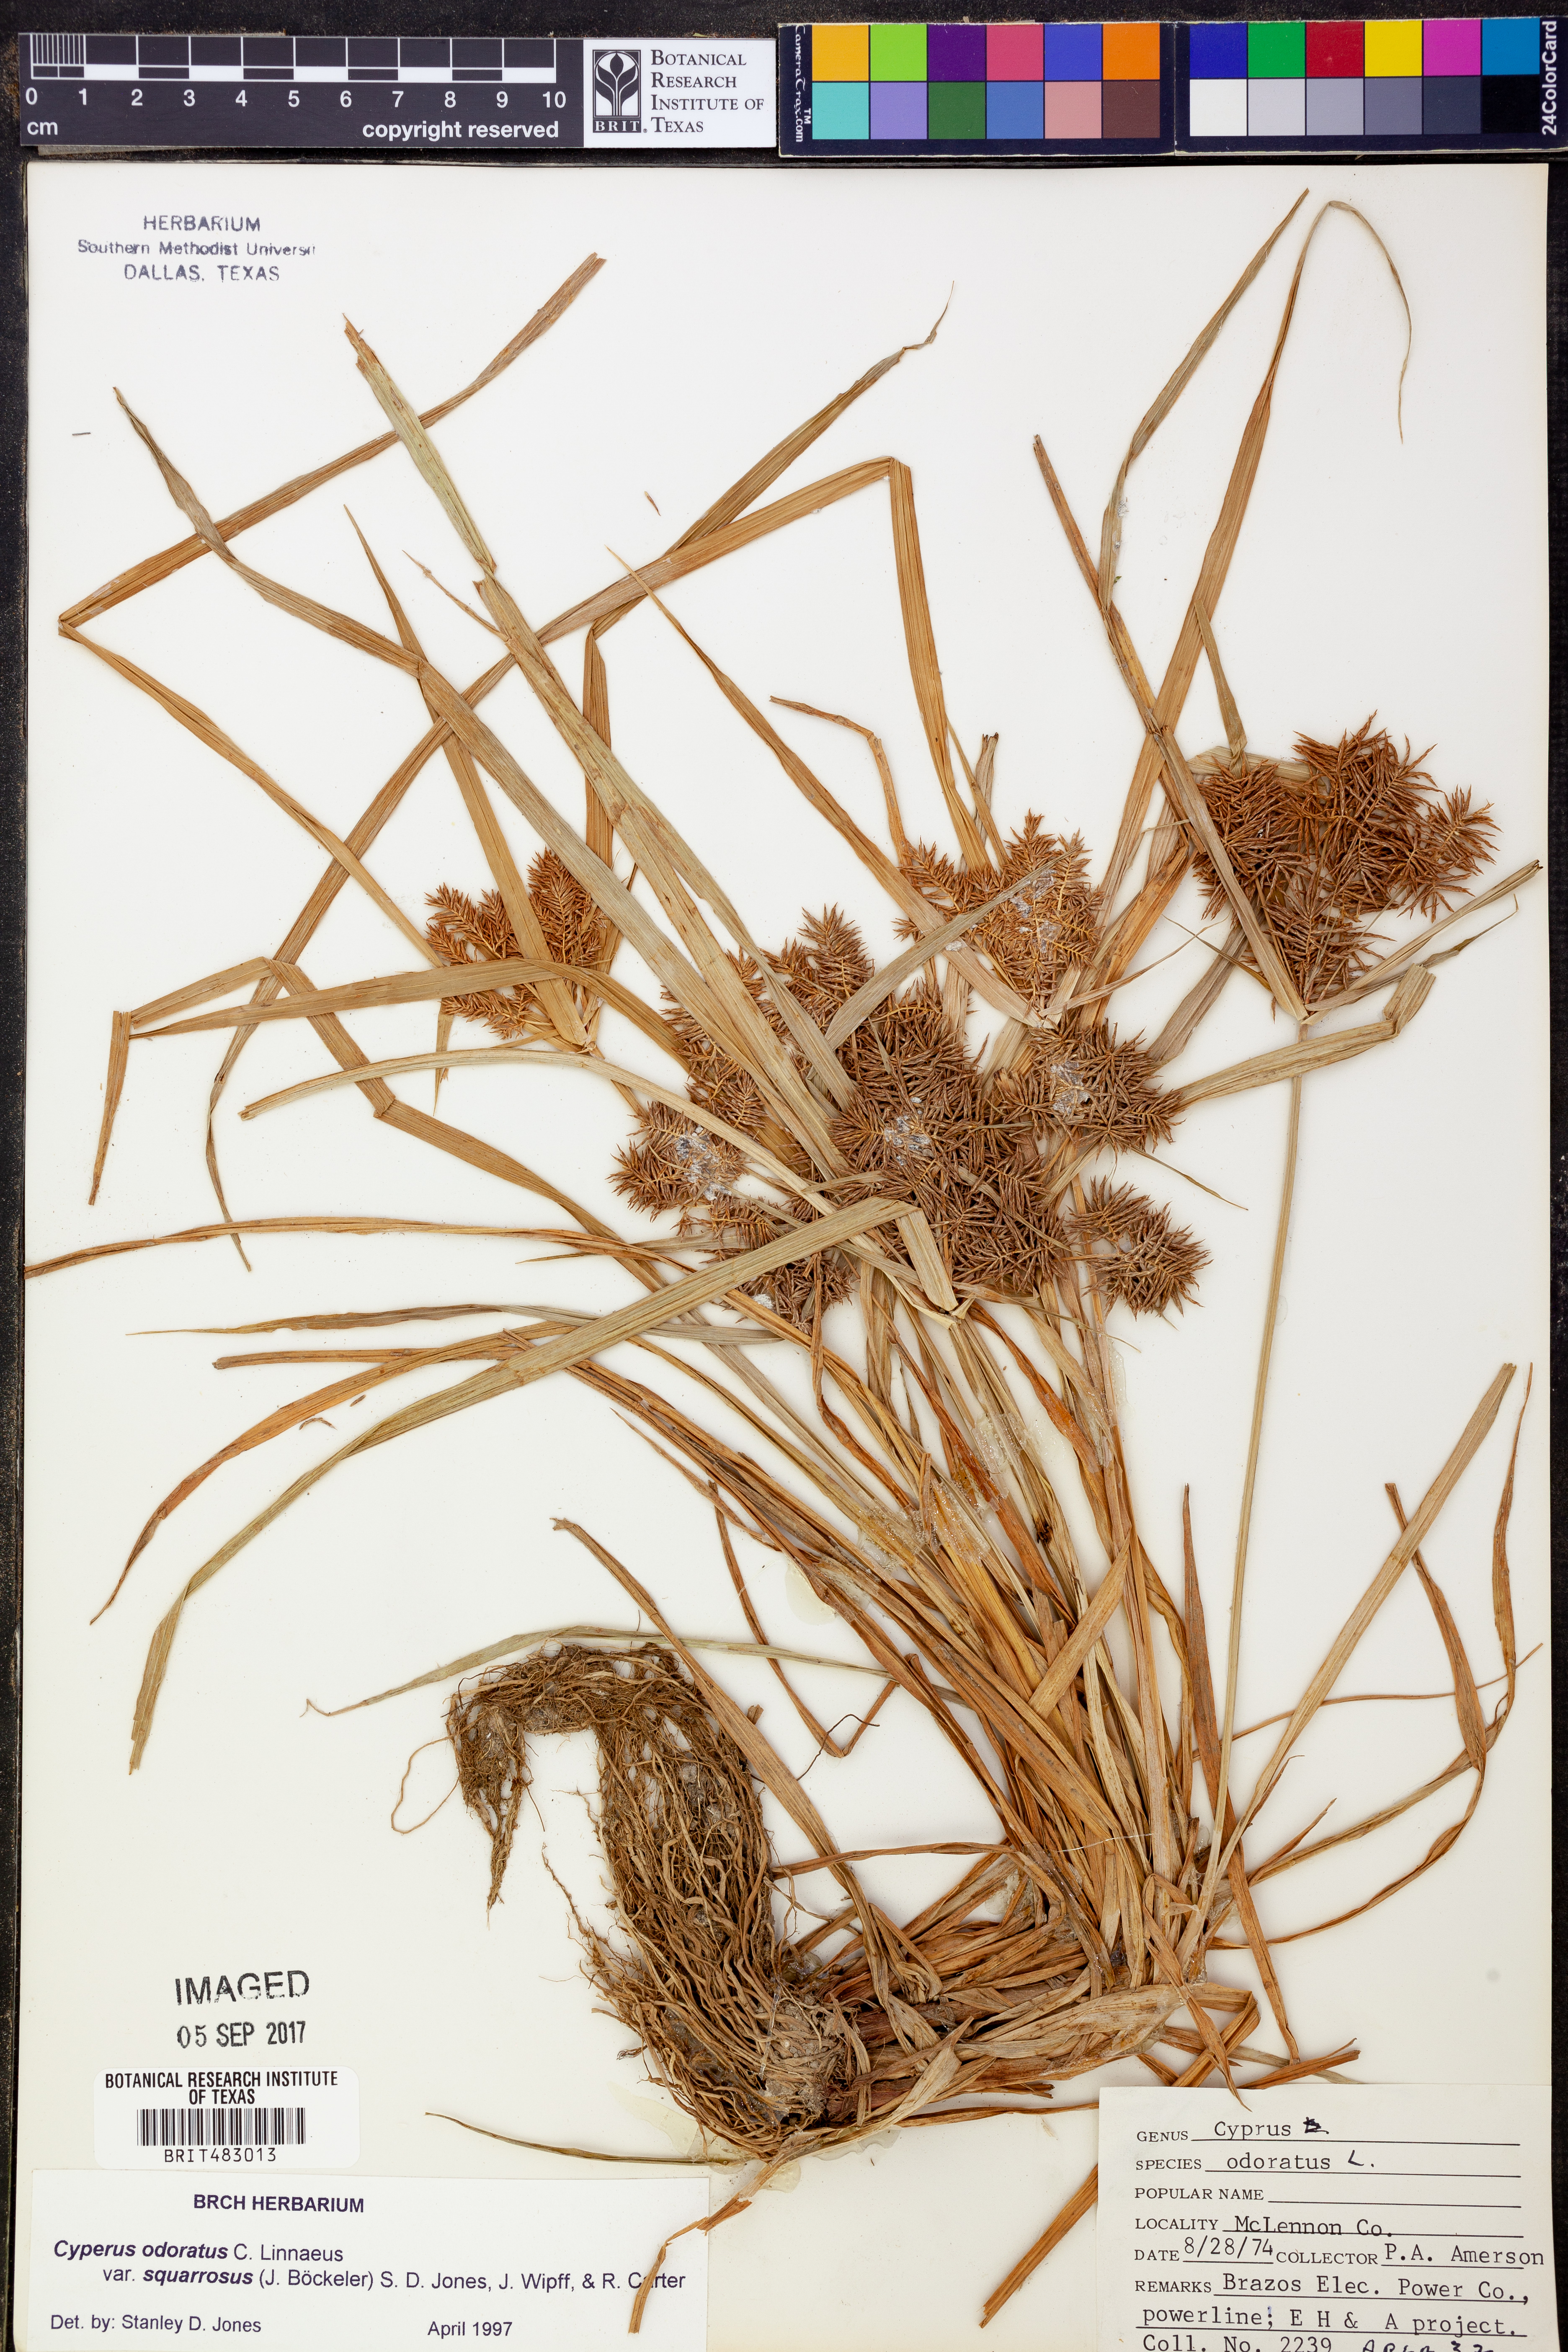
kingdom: Plantae
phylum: Tracheophyta
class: Liliopsida
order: Poales
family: Cyperaceae
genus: Cyperus
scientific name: Cyperus odoratus
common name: Fragrant flatsedge
